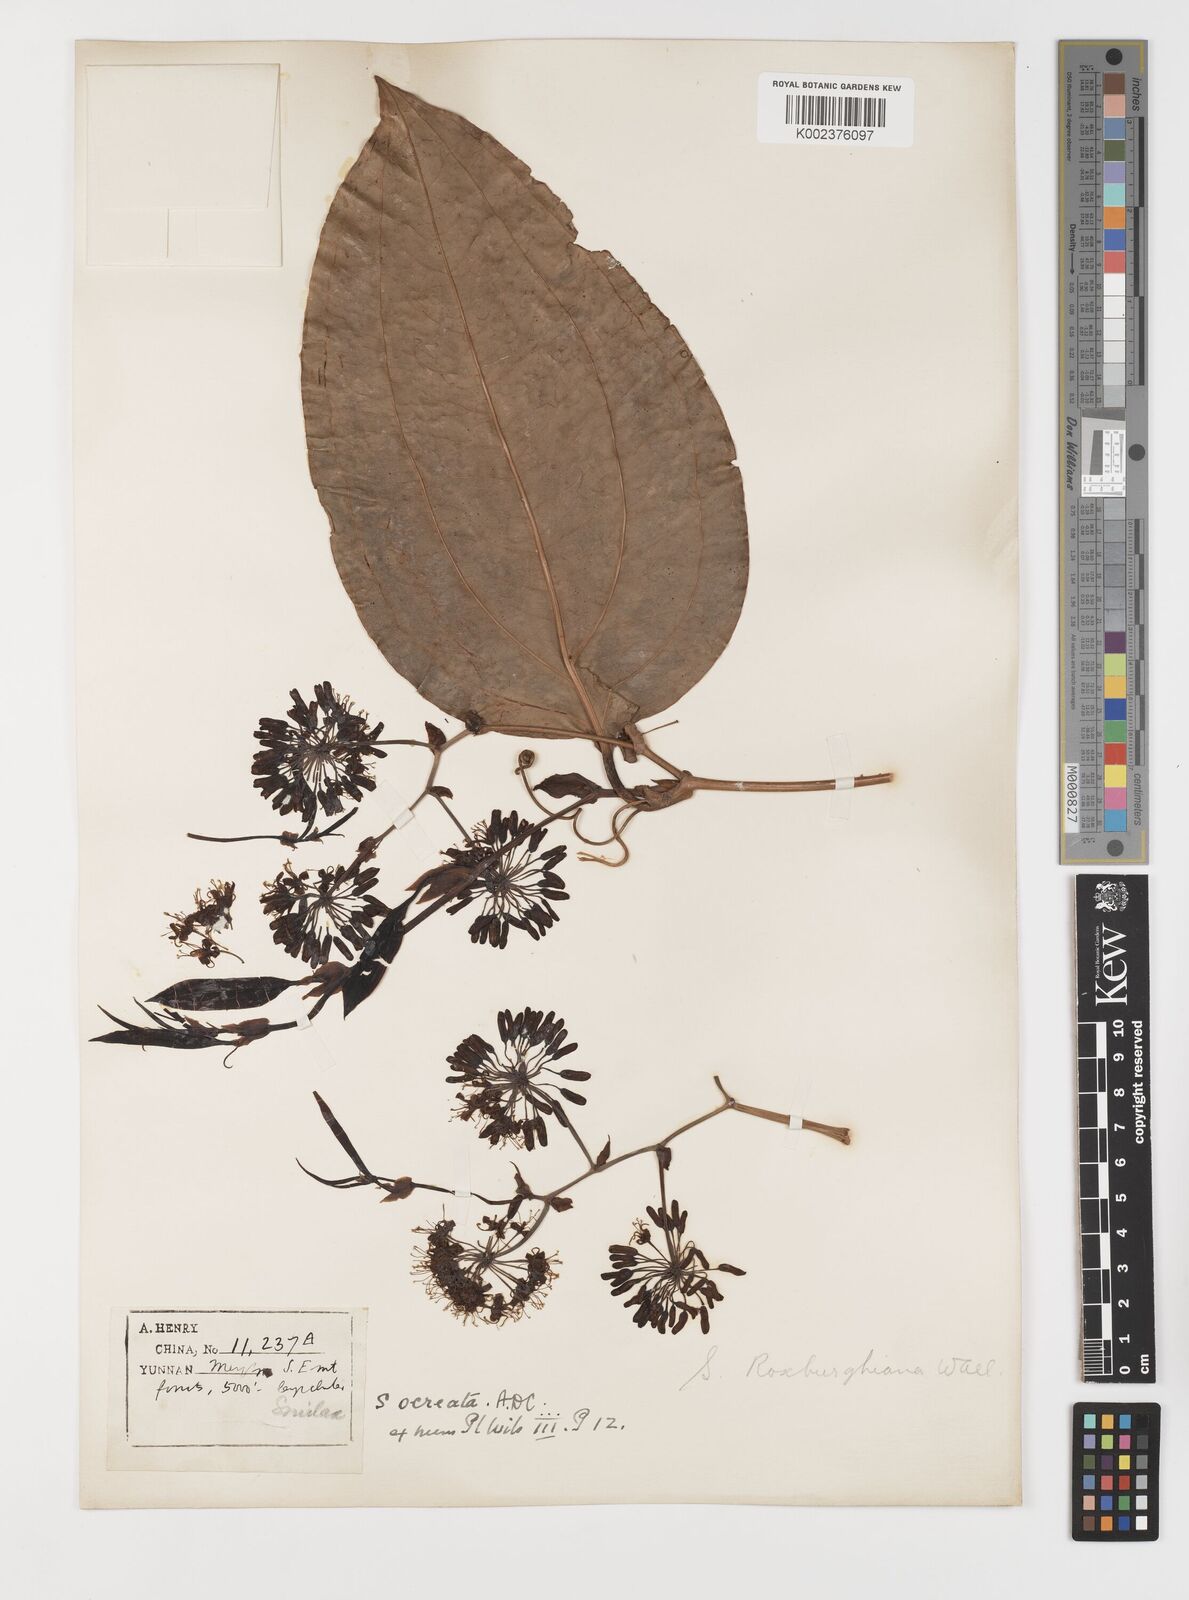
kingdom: Plantae
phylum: Tracheophyta
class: Liliopsida
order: Liliales
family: Smilacaceae
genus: Smilax
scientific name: Smilax
